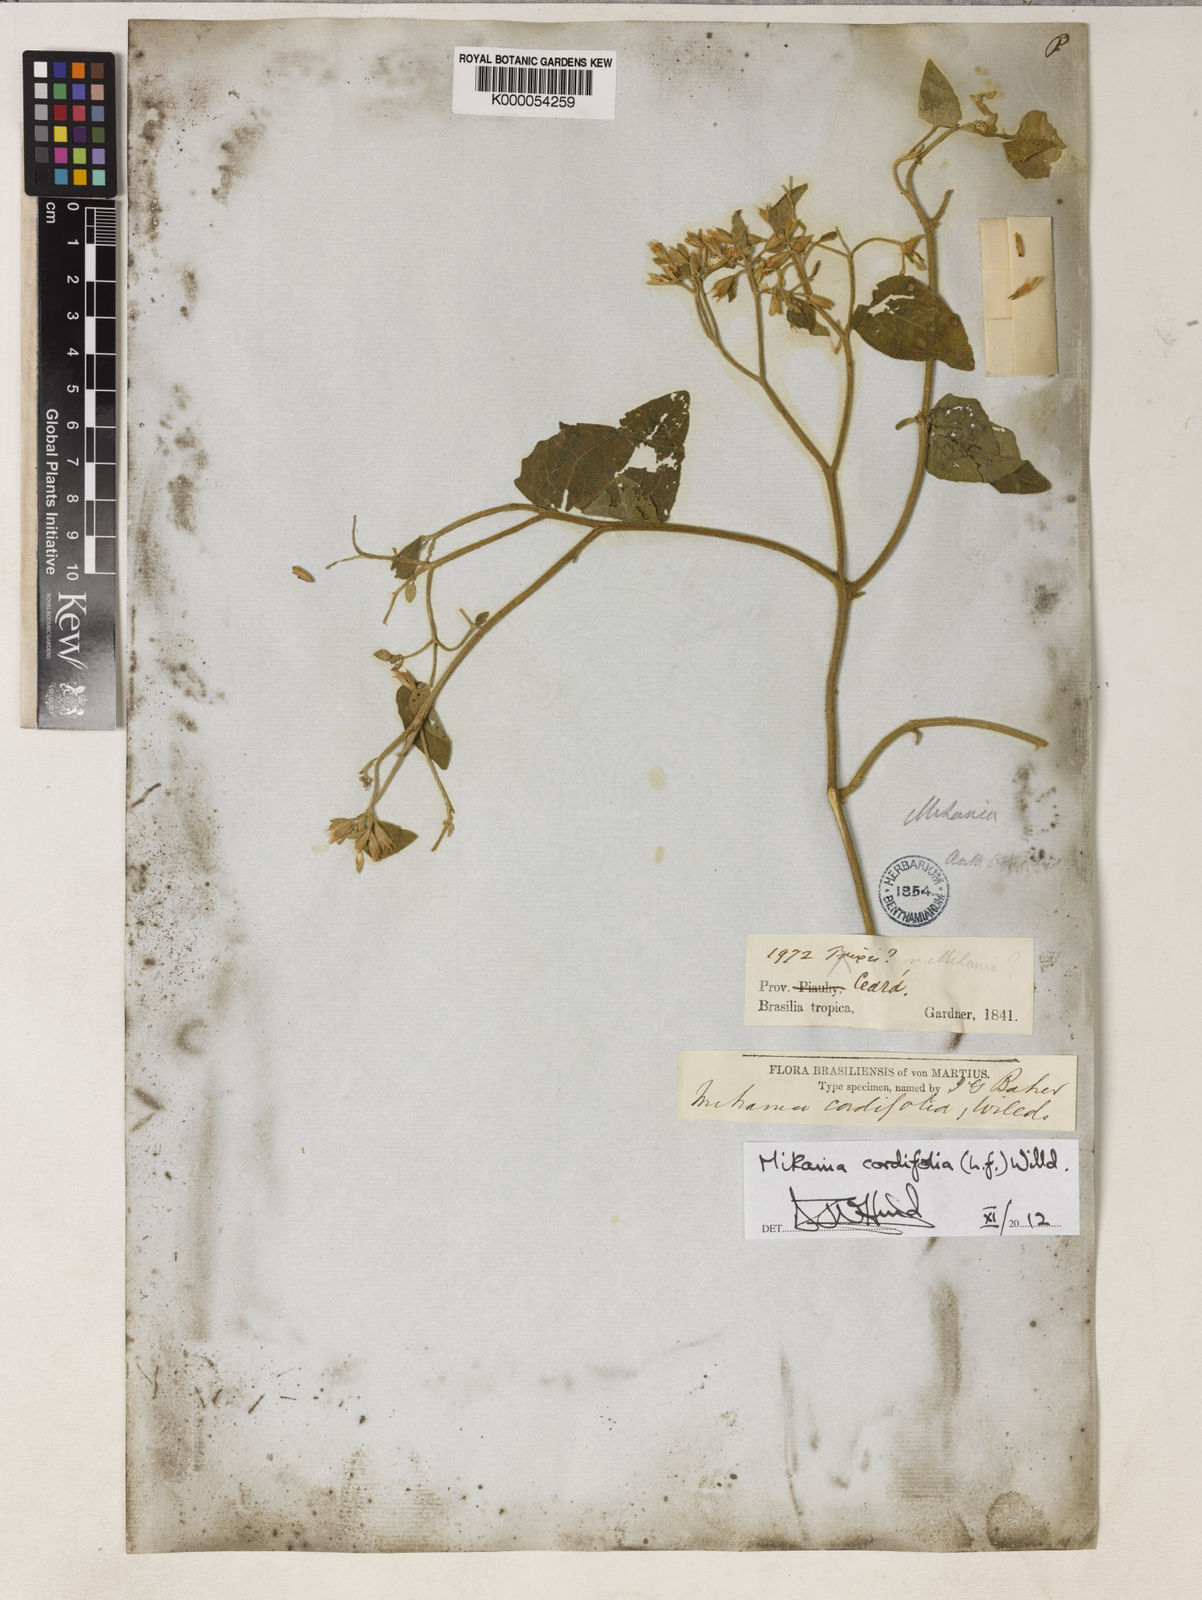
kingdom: Plantae
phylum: Tracheophyta
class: Magnoliopsida
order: Asterales
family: Asteraceae
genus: Mikania
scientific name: Mikania cordifolia
